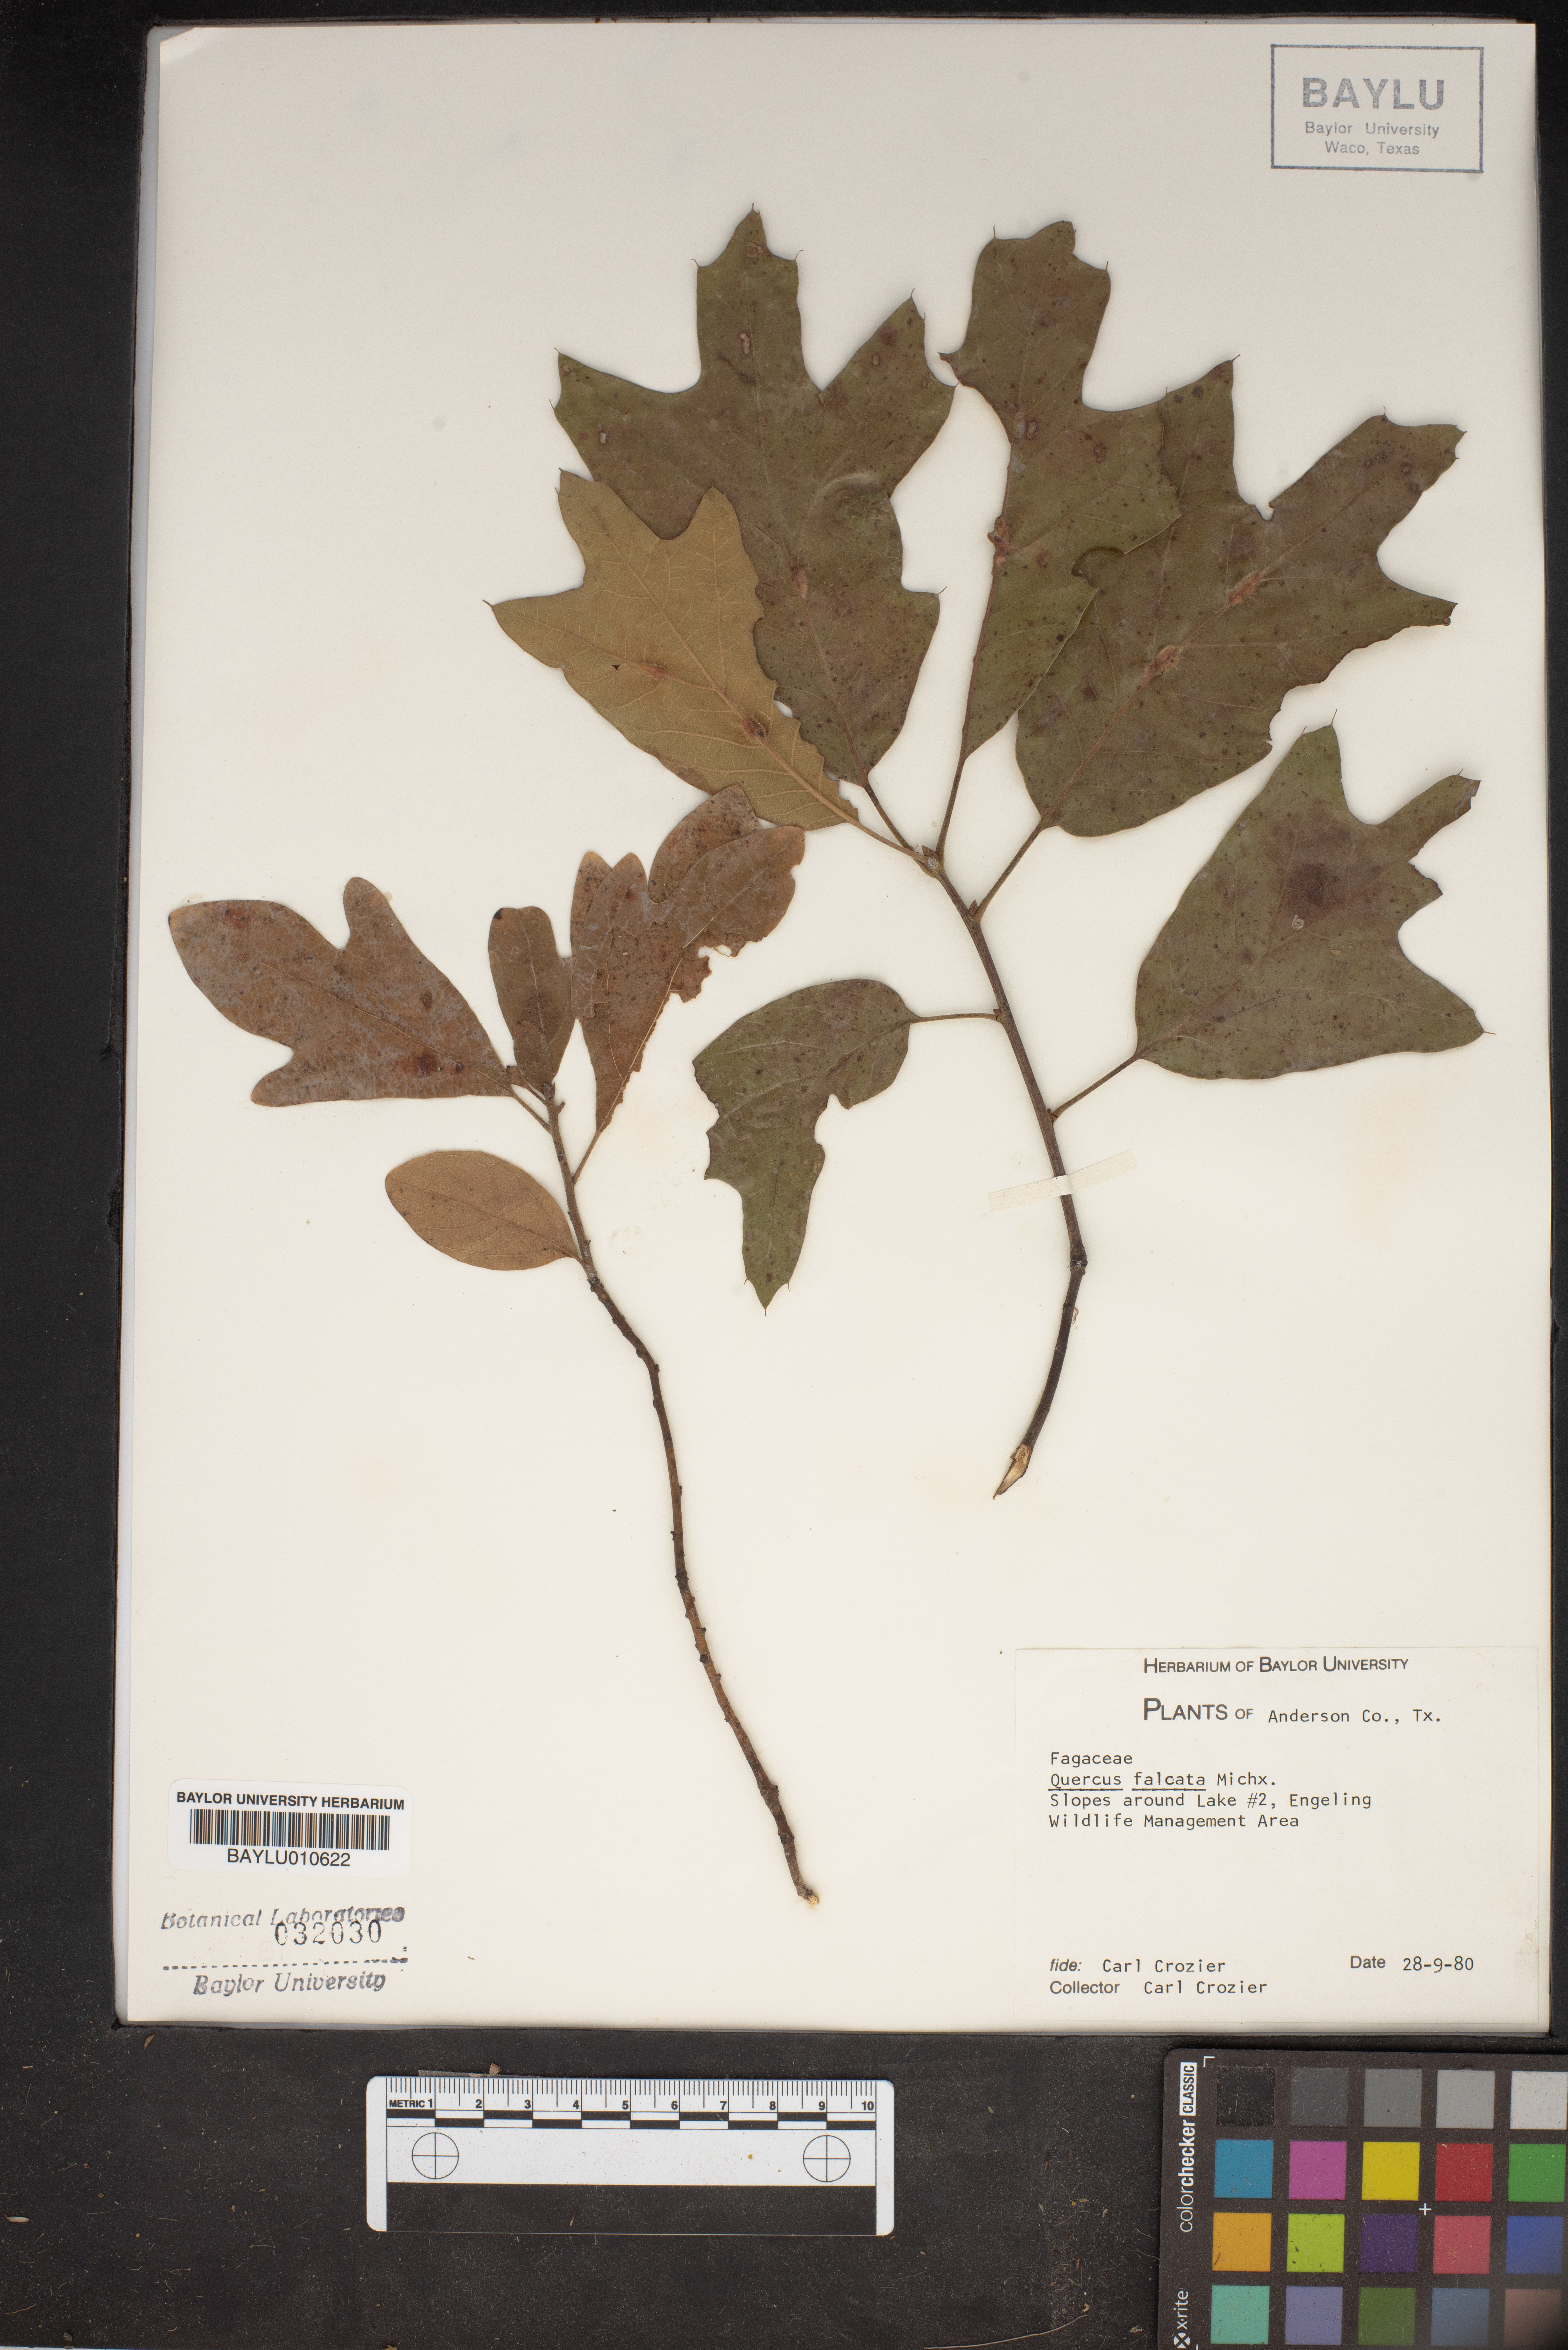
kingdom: Plantae
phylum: Tracheophyta
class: Magnoliopsida
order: Fagales
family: Fagaceae
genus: Quercus
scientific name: Quercus falcata
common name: Southern red oak
